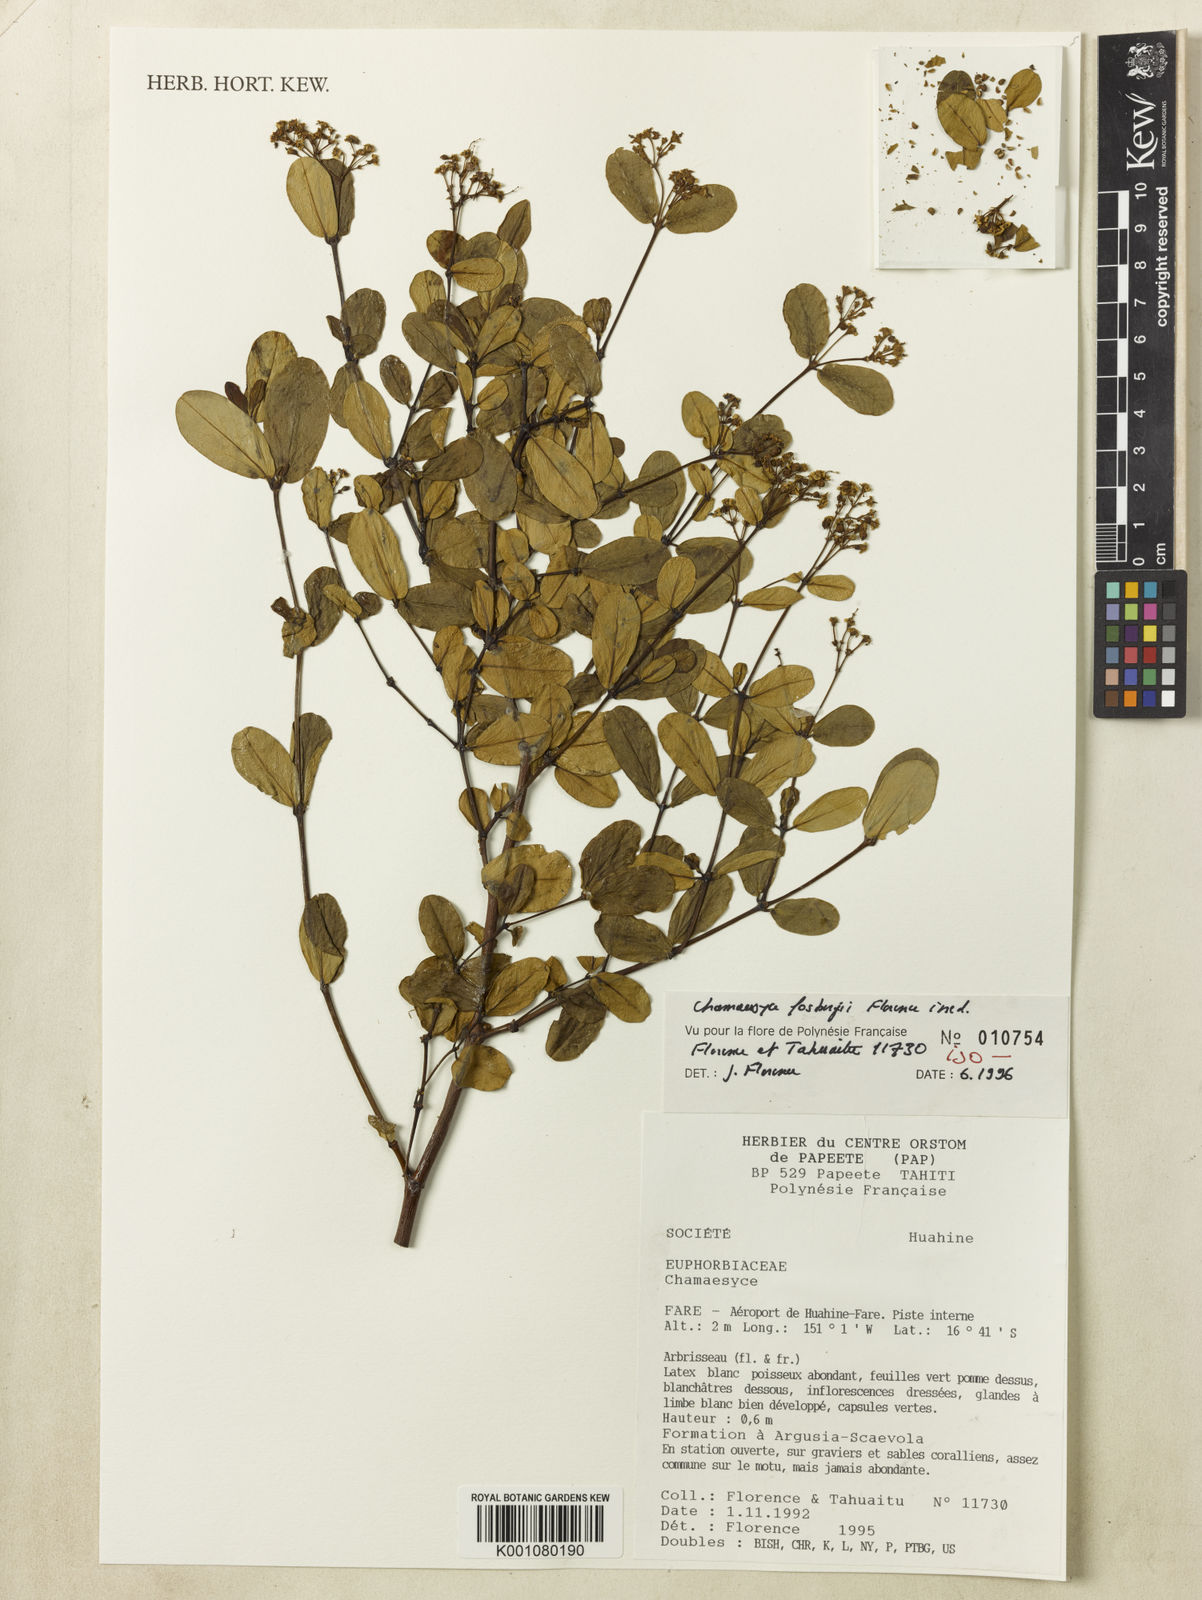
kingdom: Plantae
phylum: Tracheophyta
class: Magnoliopsida
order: Malpighiales
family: Euphorbiaceae
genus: Euphorbia
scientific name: Euphorbia
